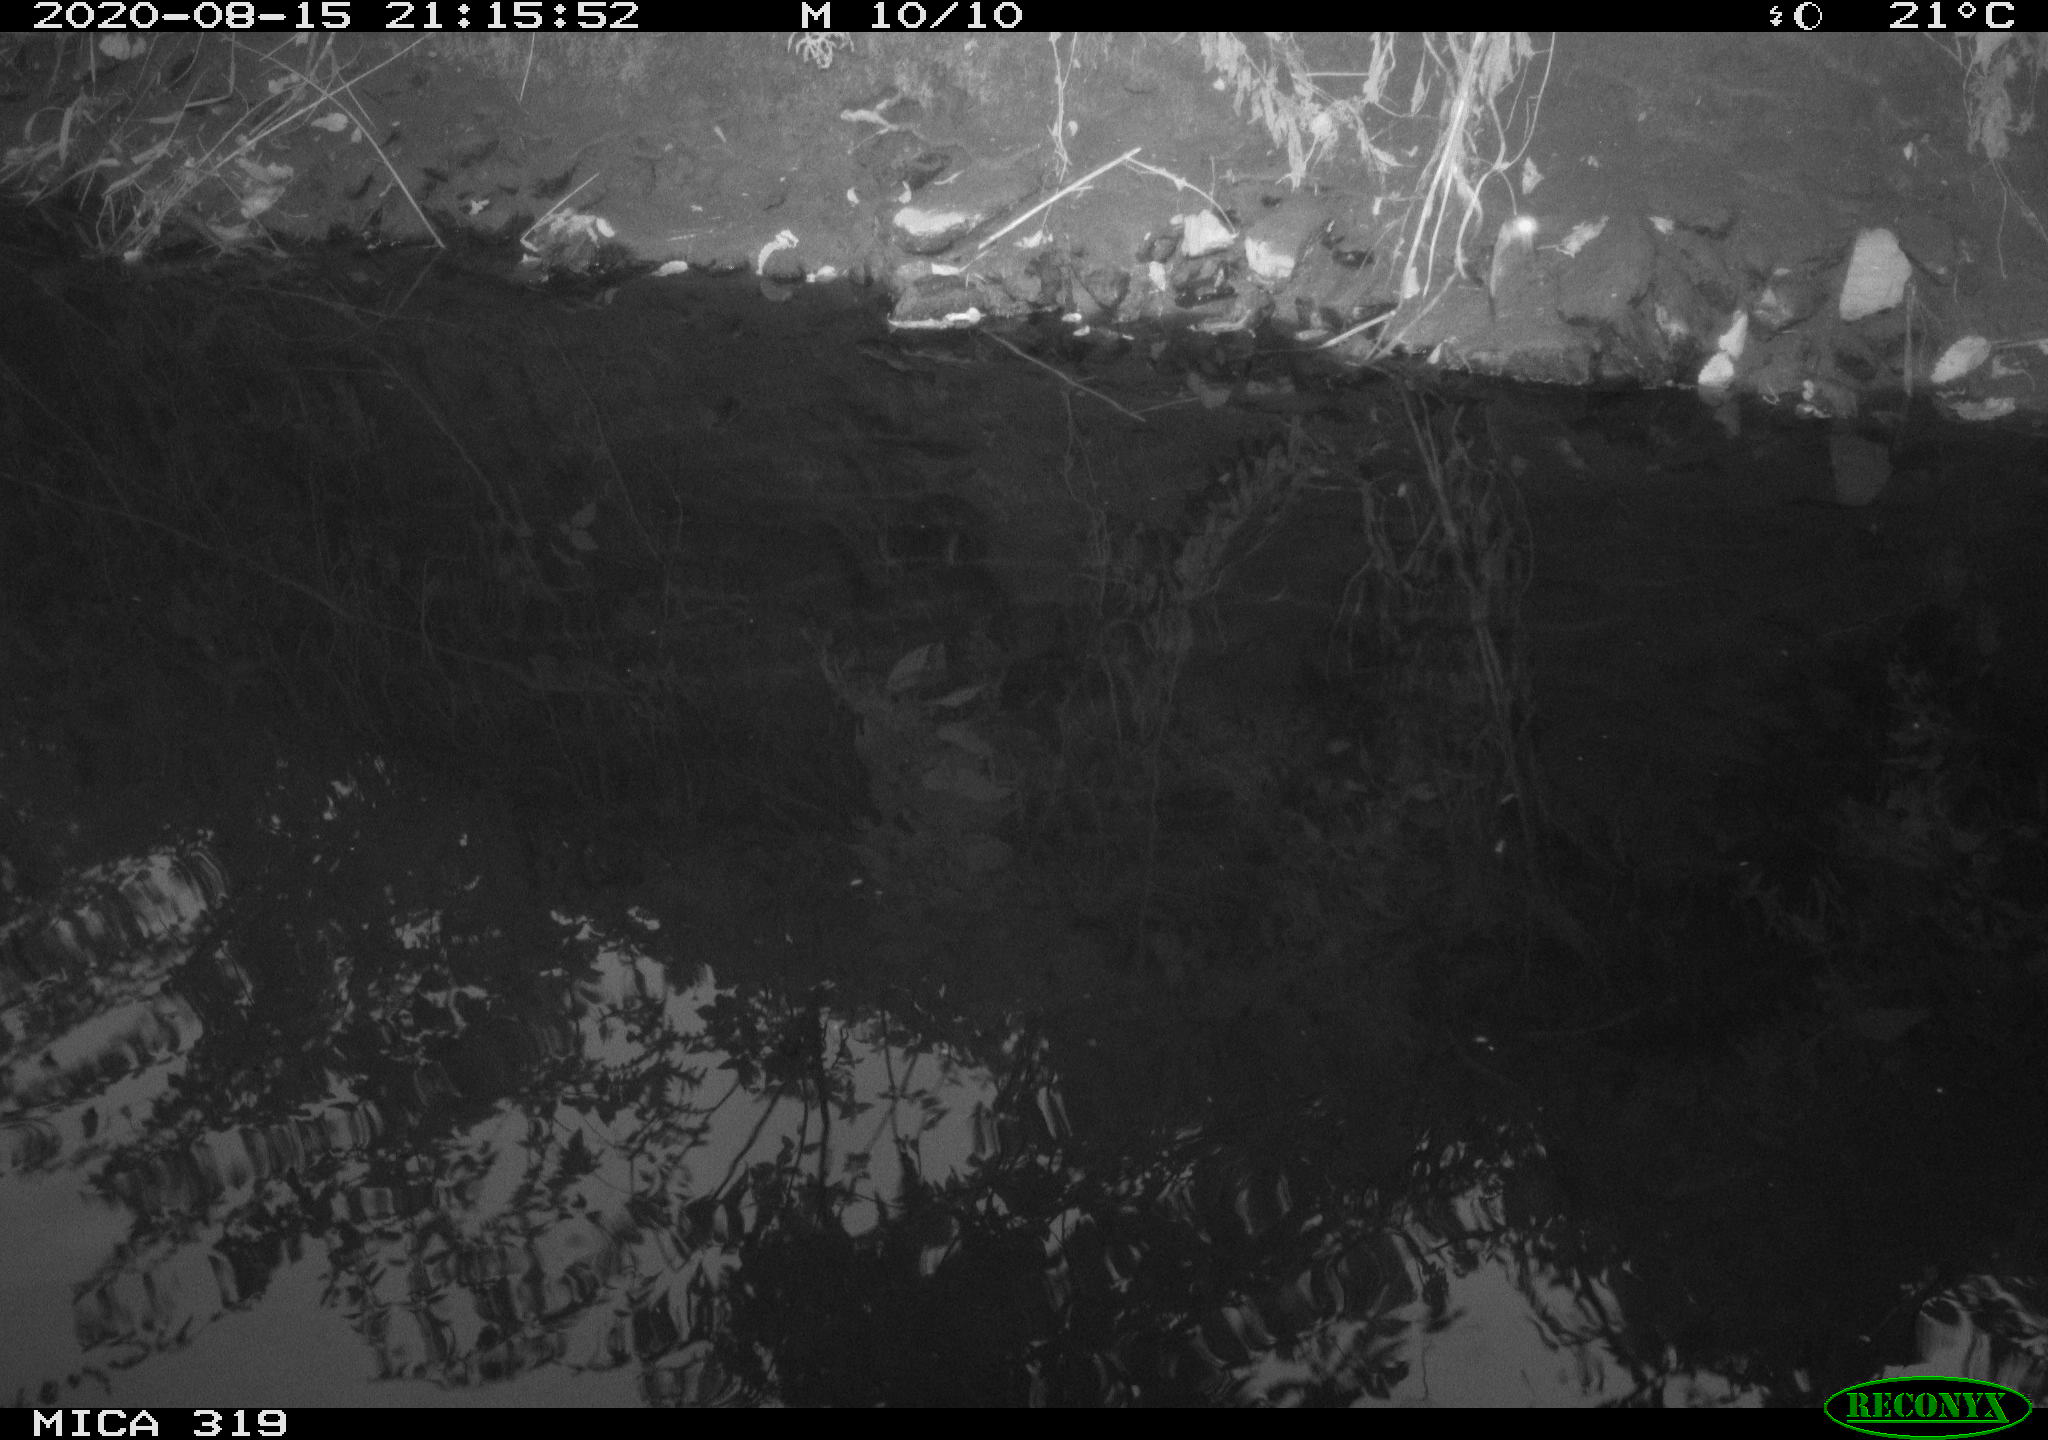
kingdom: Animalia
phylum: Chordata
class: Aves
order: Anseriformes
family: Anatidae
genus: Anas
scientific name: Anas platyrhynchos
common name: Mallard
